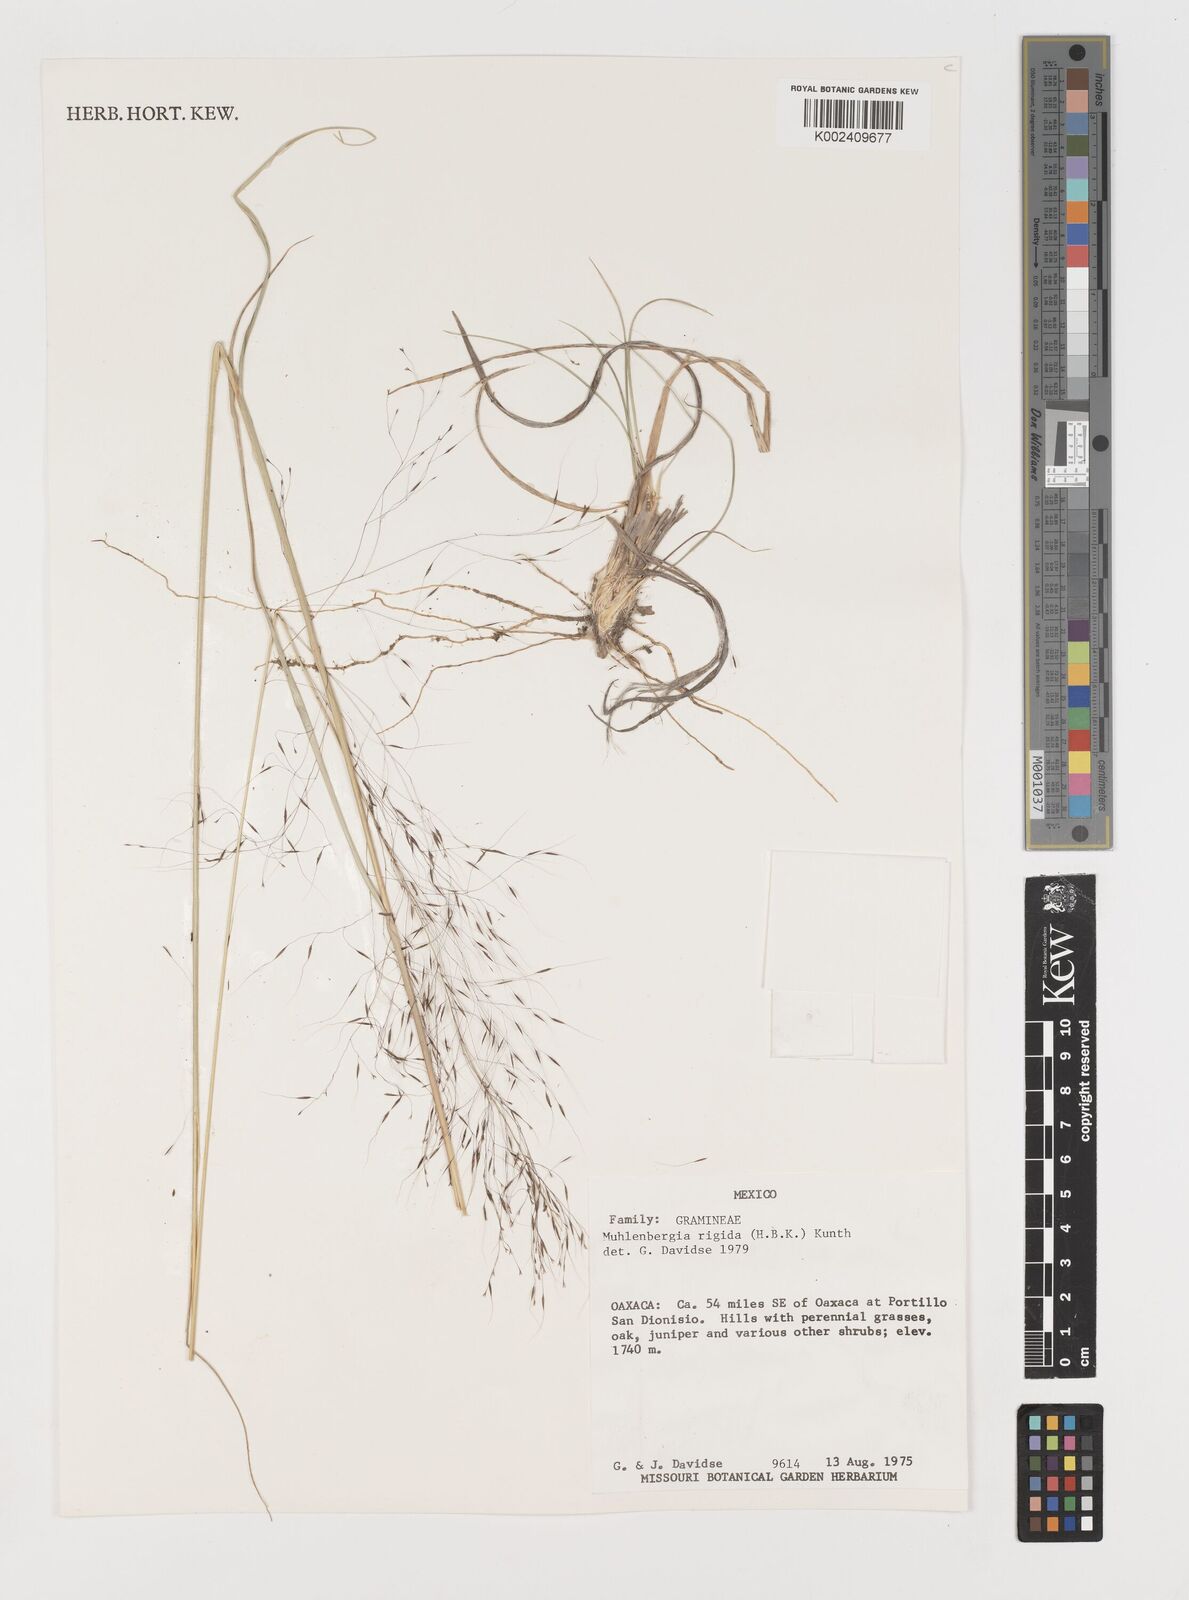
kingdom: Plantae
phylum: Tracheophyta
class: Liliopsida
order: Poales
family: Poaceae
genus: Muhlenbergia
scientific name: Muhlenbergia rigida
